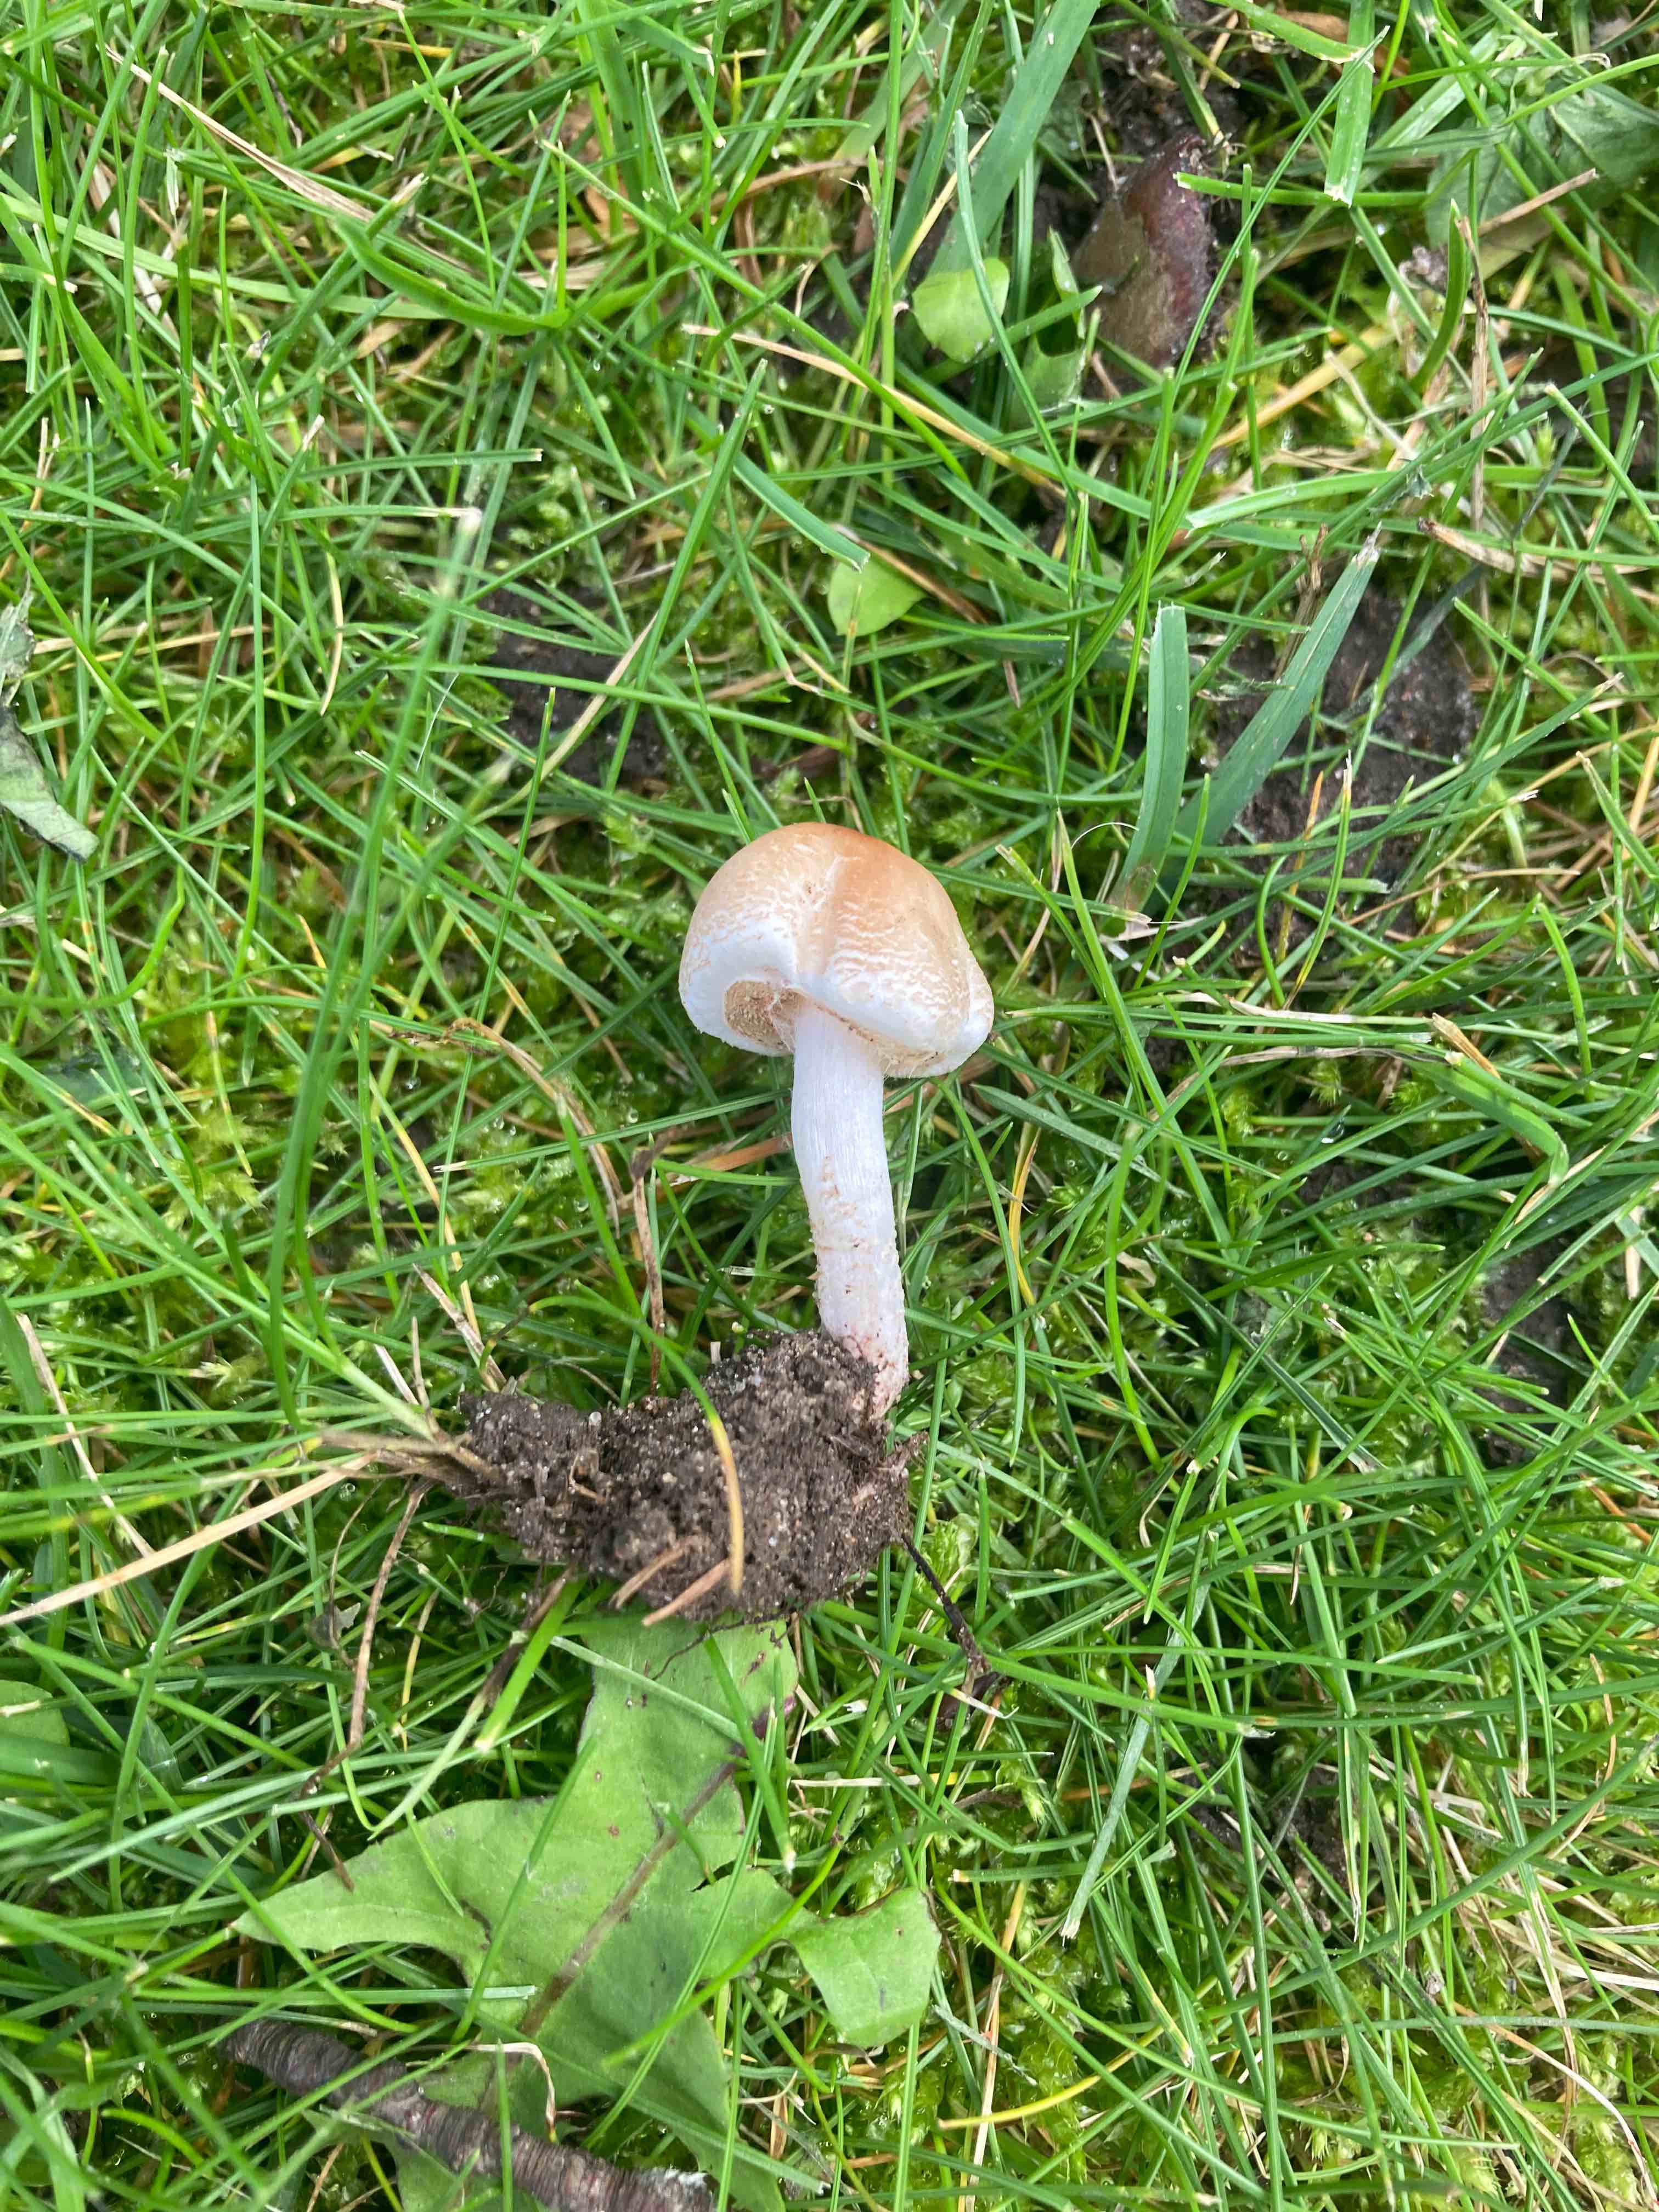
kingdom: Fungi
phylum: Basidiomycota
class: Agaricomycetes
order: Agaricales
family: Agaricaceae
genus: Lepiota
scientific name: Lepiota cristata
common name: stinkende parasolhat
